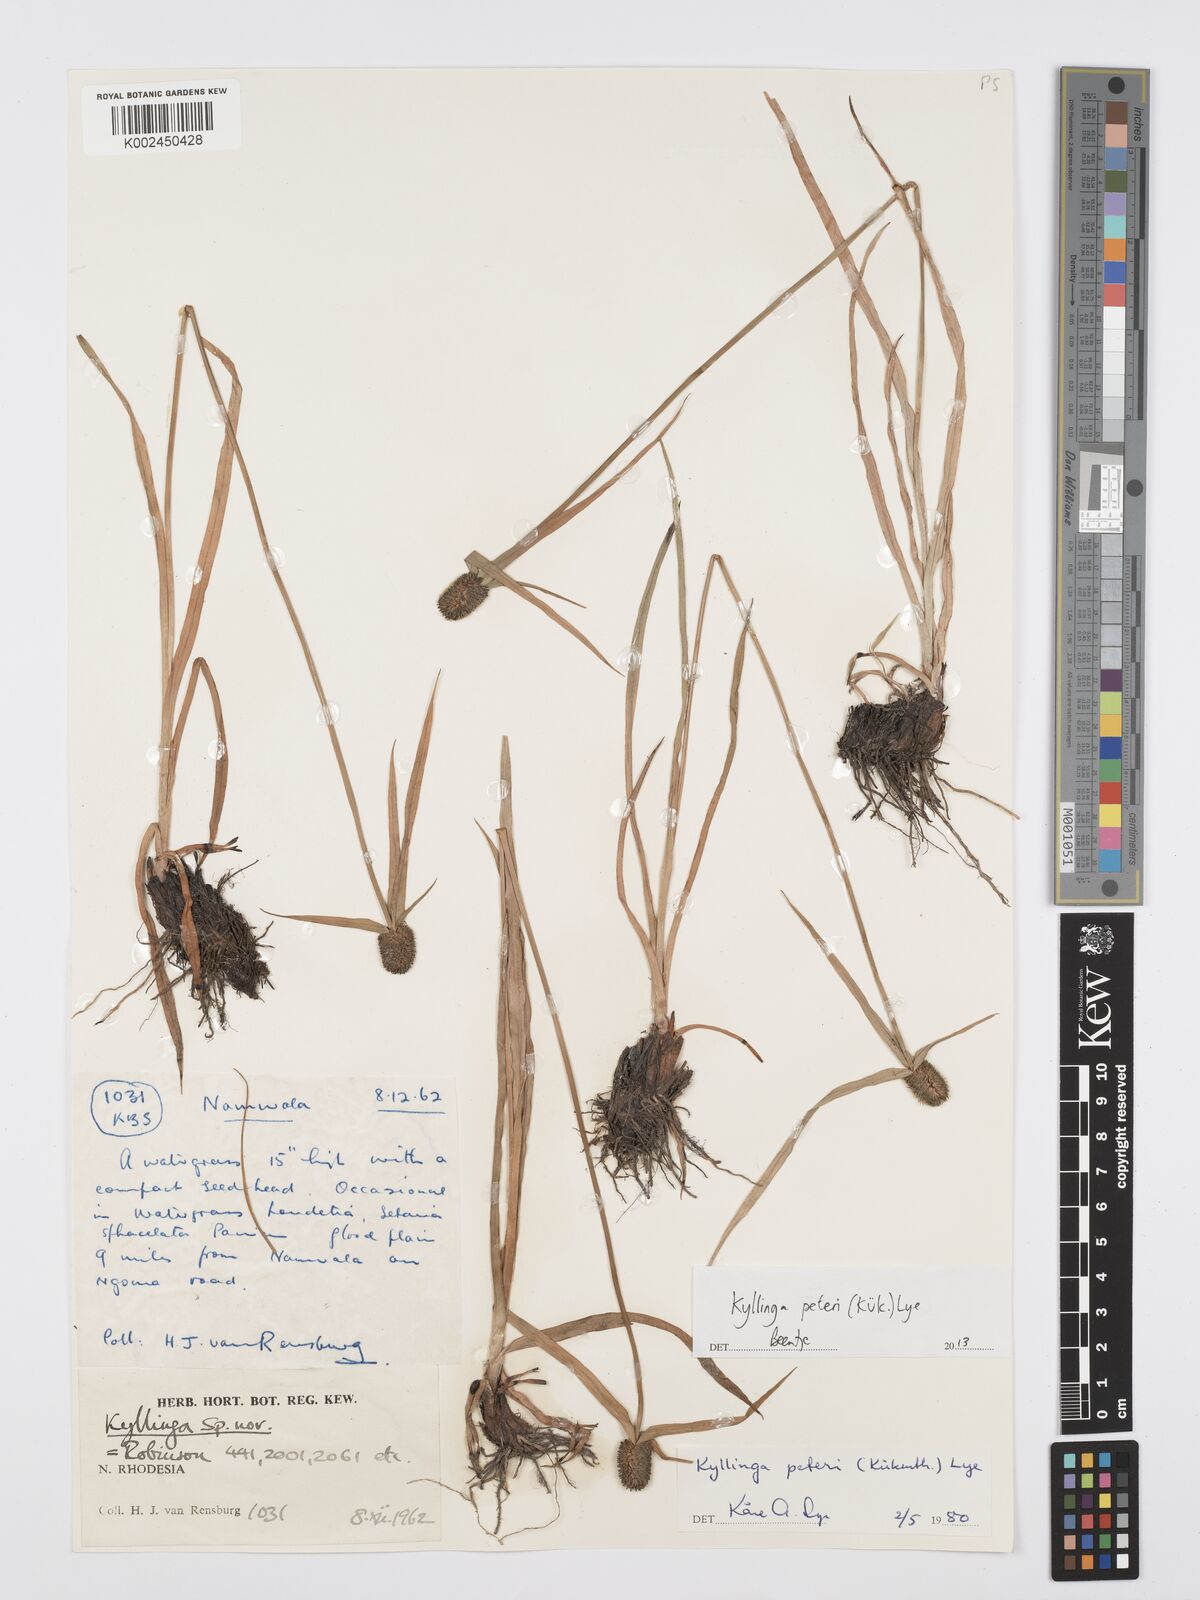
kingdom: Plantae
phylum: Tracheophyta
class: Liliopsida
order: Poales
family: Cyperaceae
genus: Cyperus
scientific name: Cyperus peteri
